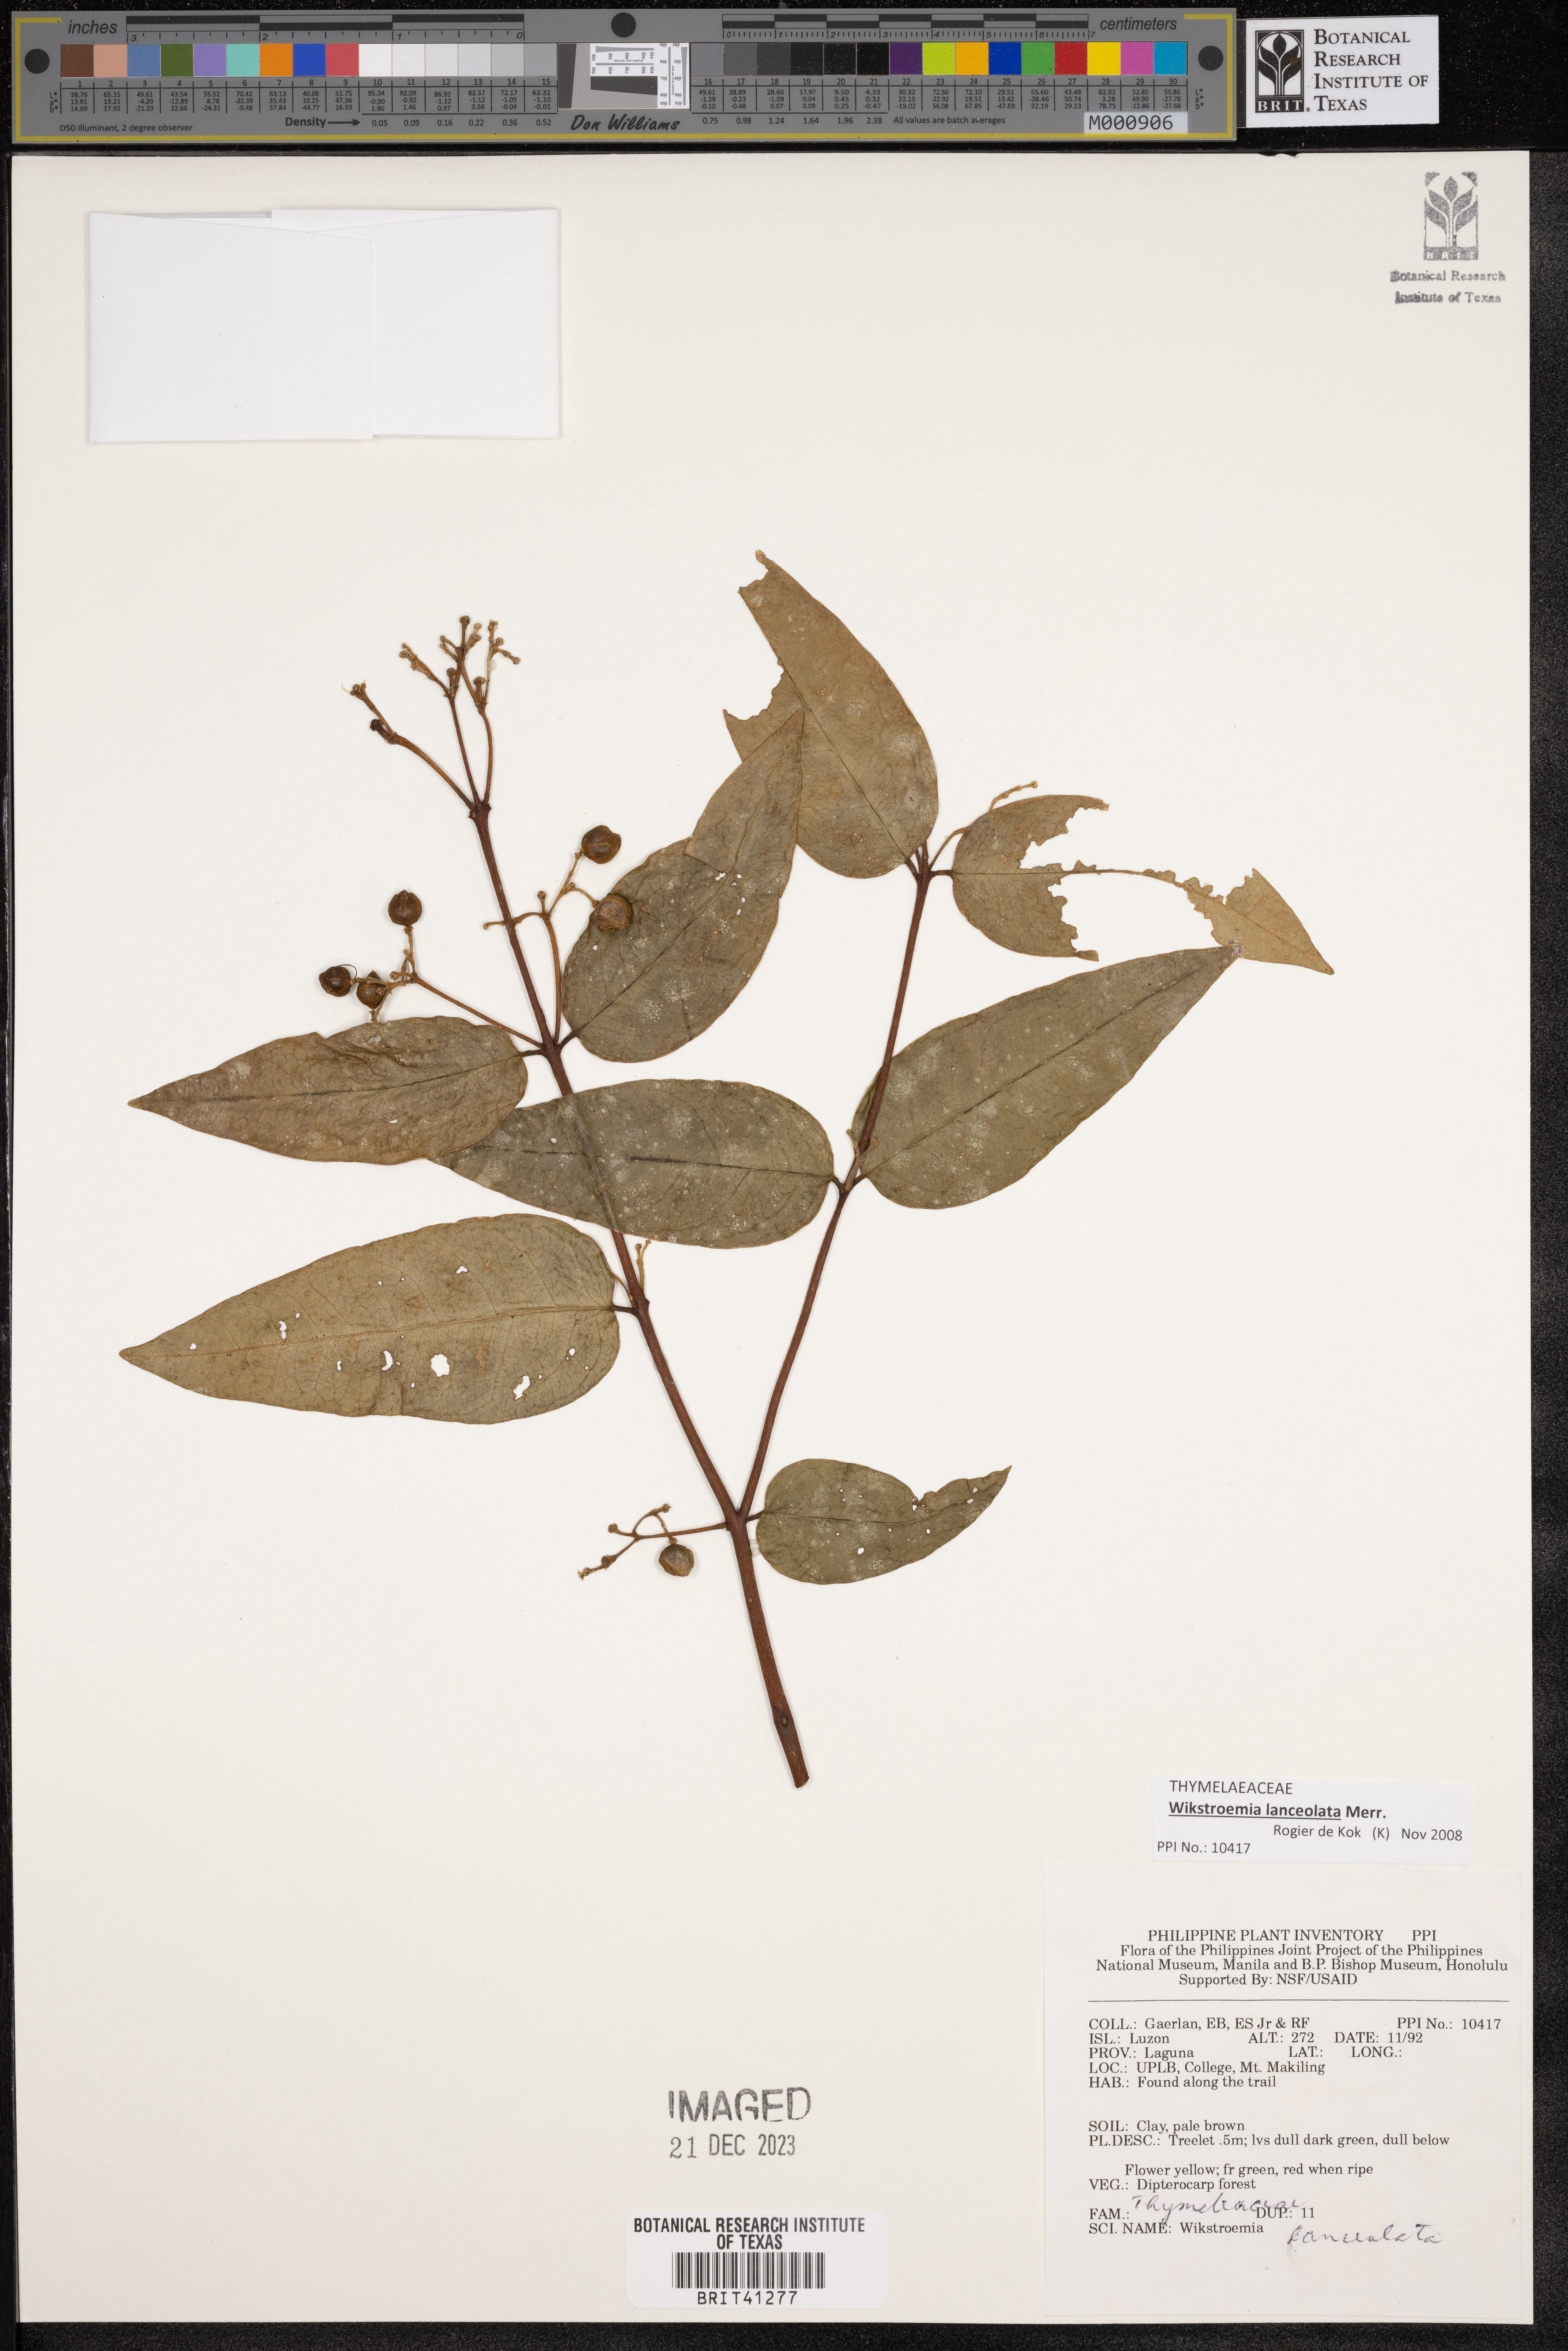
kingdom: Plantae
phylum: Tracheophyta
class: Magnoliopsida
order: Malvales
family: Thymelaeaceae
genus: Wikstroemia
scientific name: Wikstroemia lanceolata
